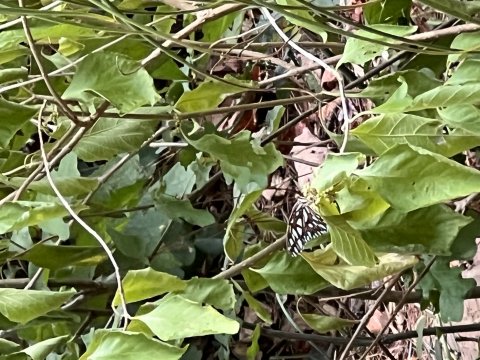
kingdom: Animalia
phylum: Arthropoda
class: Insecta
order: Lepidoptera
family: Nymphalidae
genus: Dione
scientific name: Dione vanillae
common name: Gulf Fritillary
